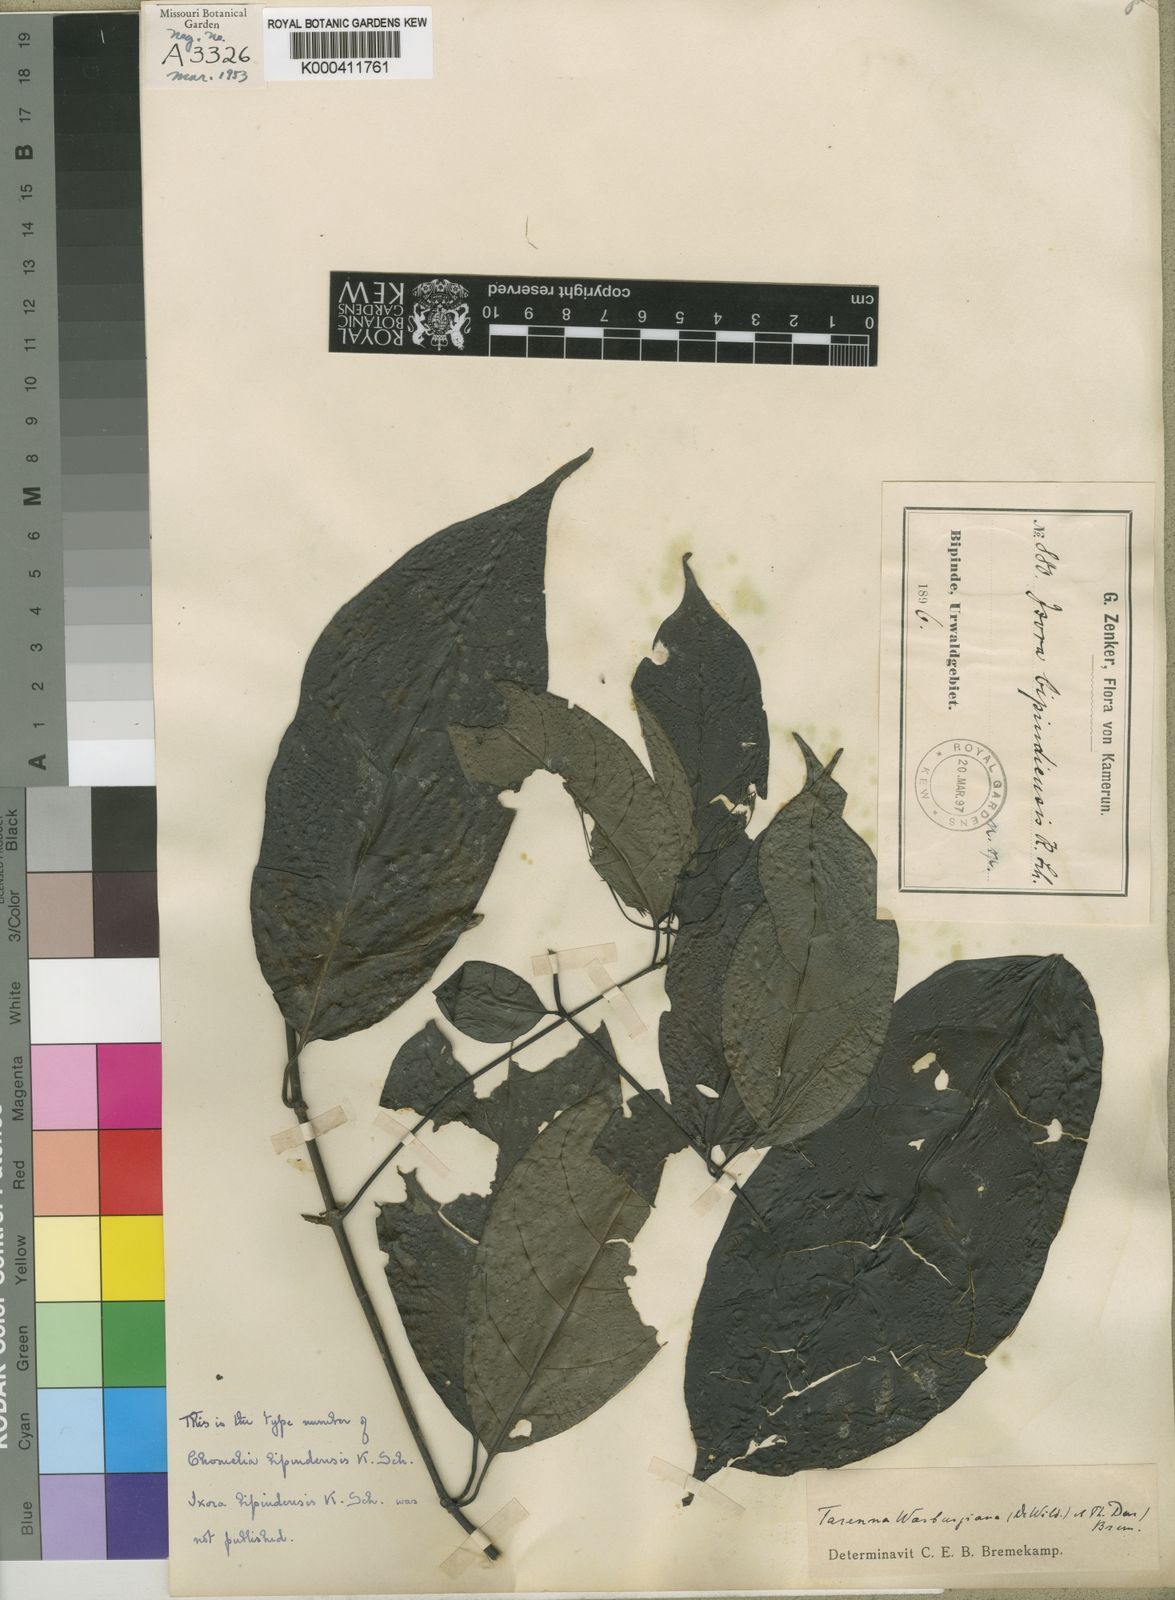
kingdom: Plantae
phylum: Tracheophyta
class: Magnoliopsida
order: Gentianales
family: Rubiaceae
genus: Tarenna
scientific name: Tarenna bipindensis
